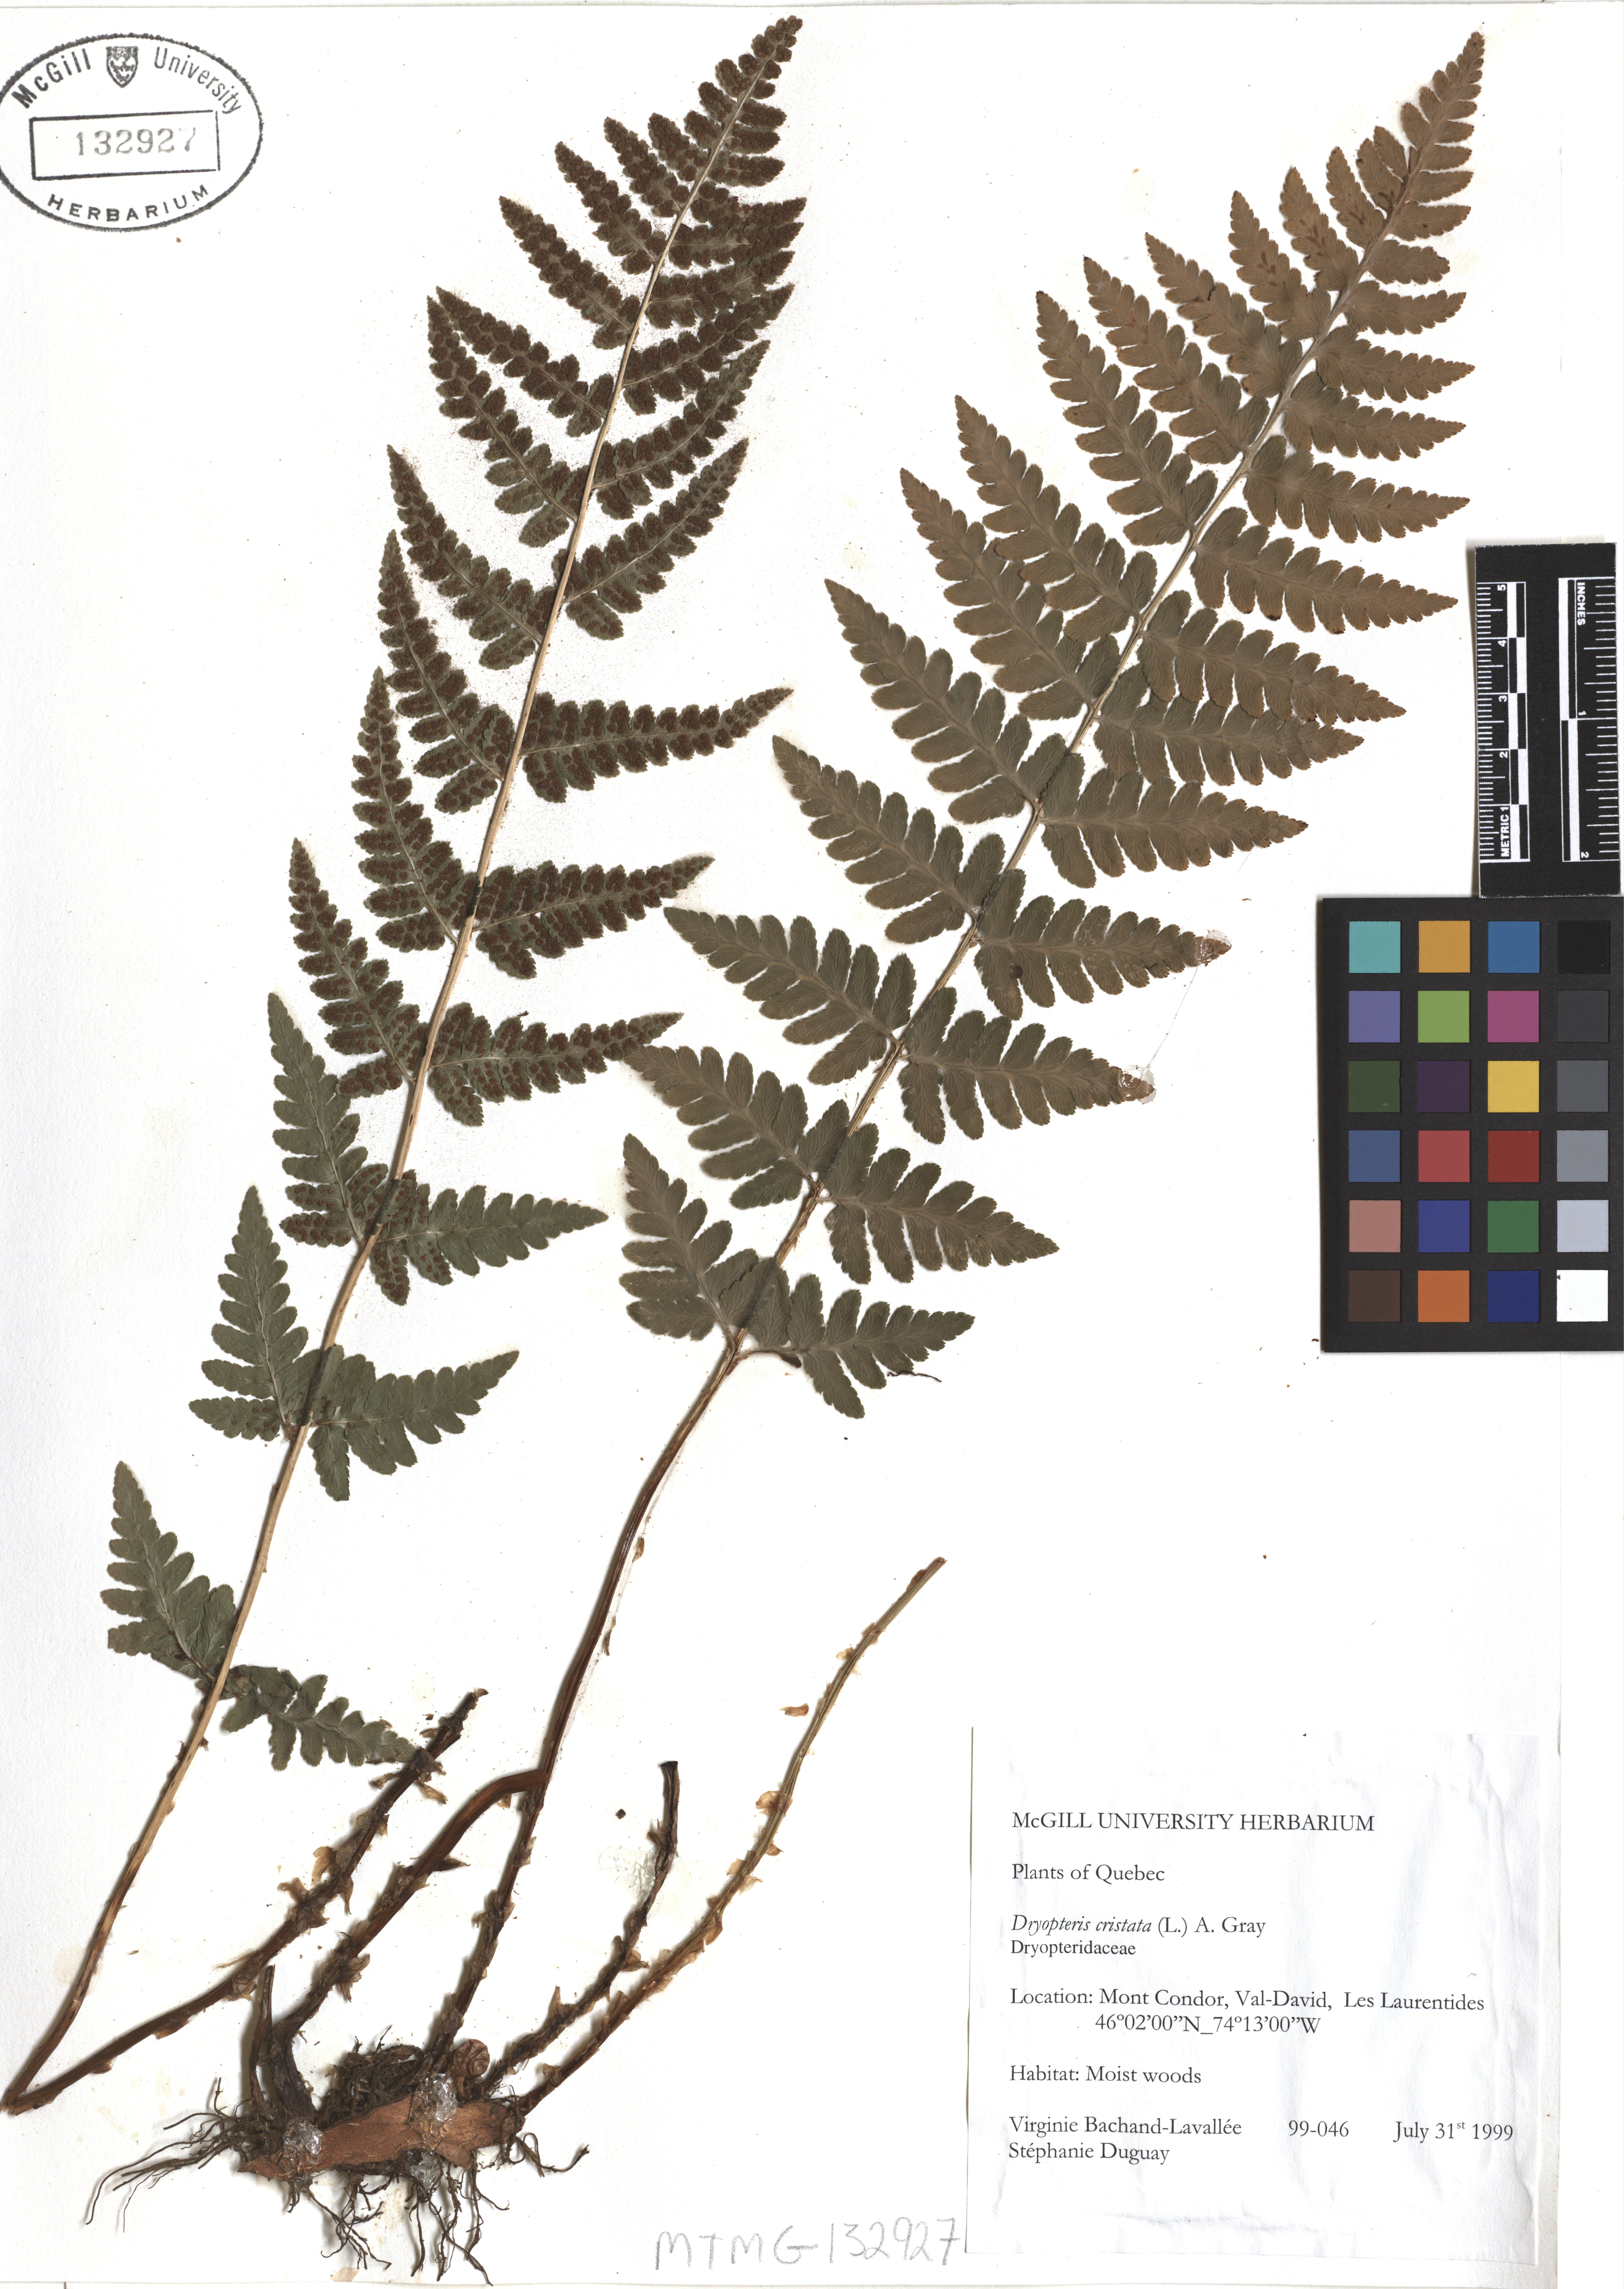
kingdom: Plantae
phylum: Tracheophyta
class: Polypodiopsida
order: Polypodiales
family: Dryopteridaceae
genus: Dryopteris
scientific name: Dryopteris cristata
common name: Crested wood fern
